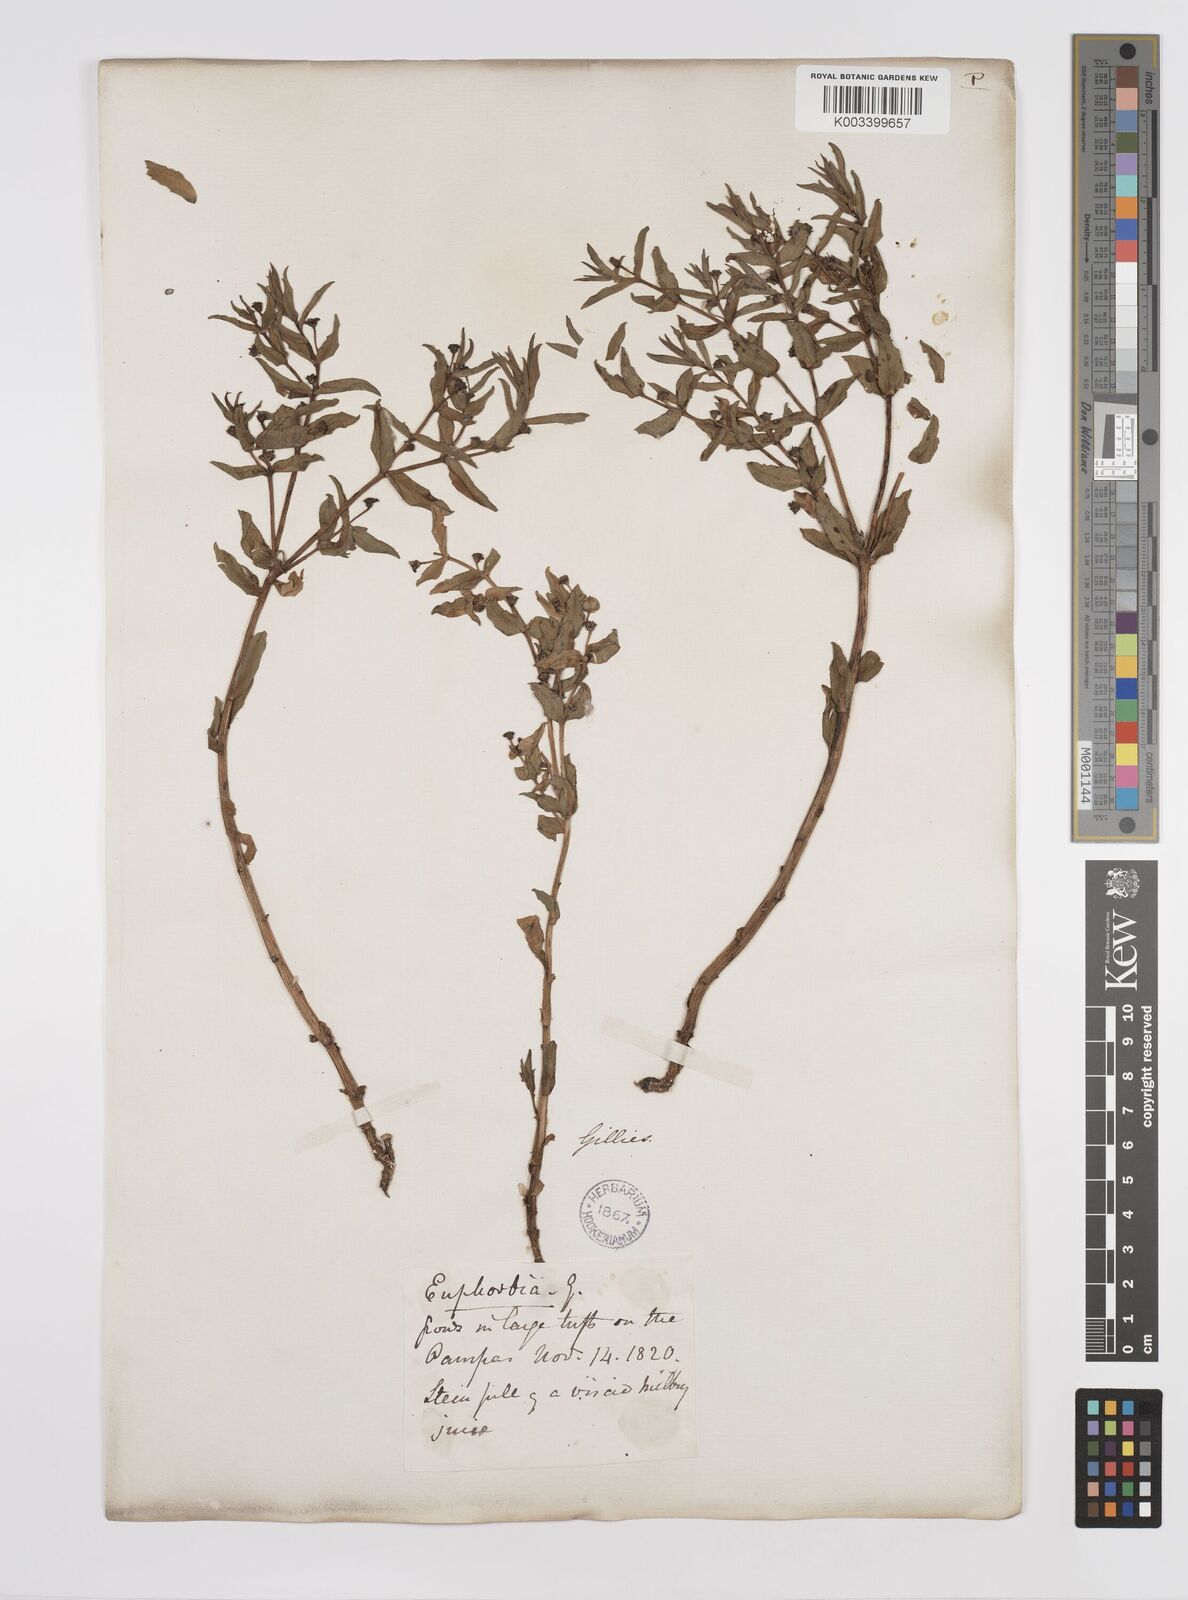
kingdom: Plantae
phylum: Tracheophyta
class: Magnoliopsida
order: Malpighiales
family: Euphorbiaceae
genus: Euphorbia
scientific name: Euphorbia portulacoides
